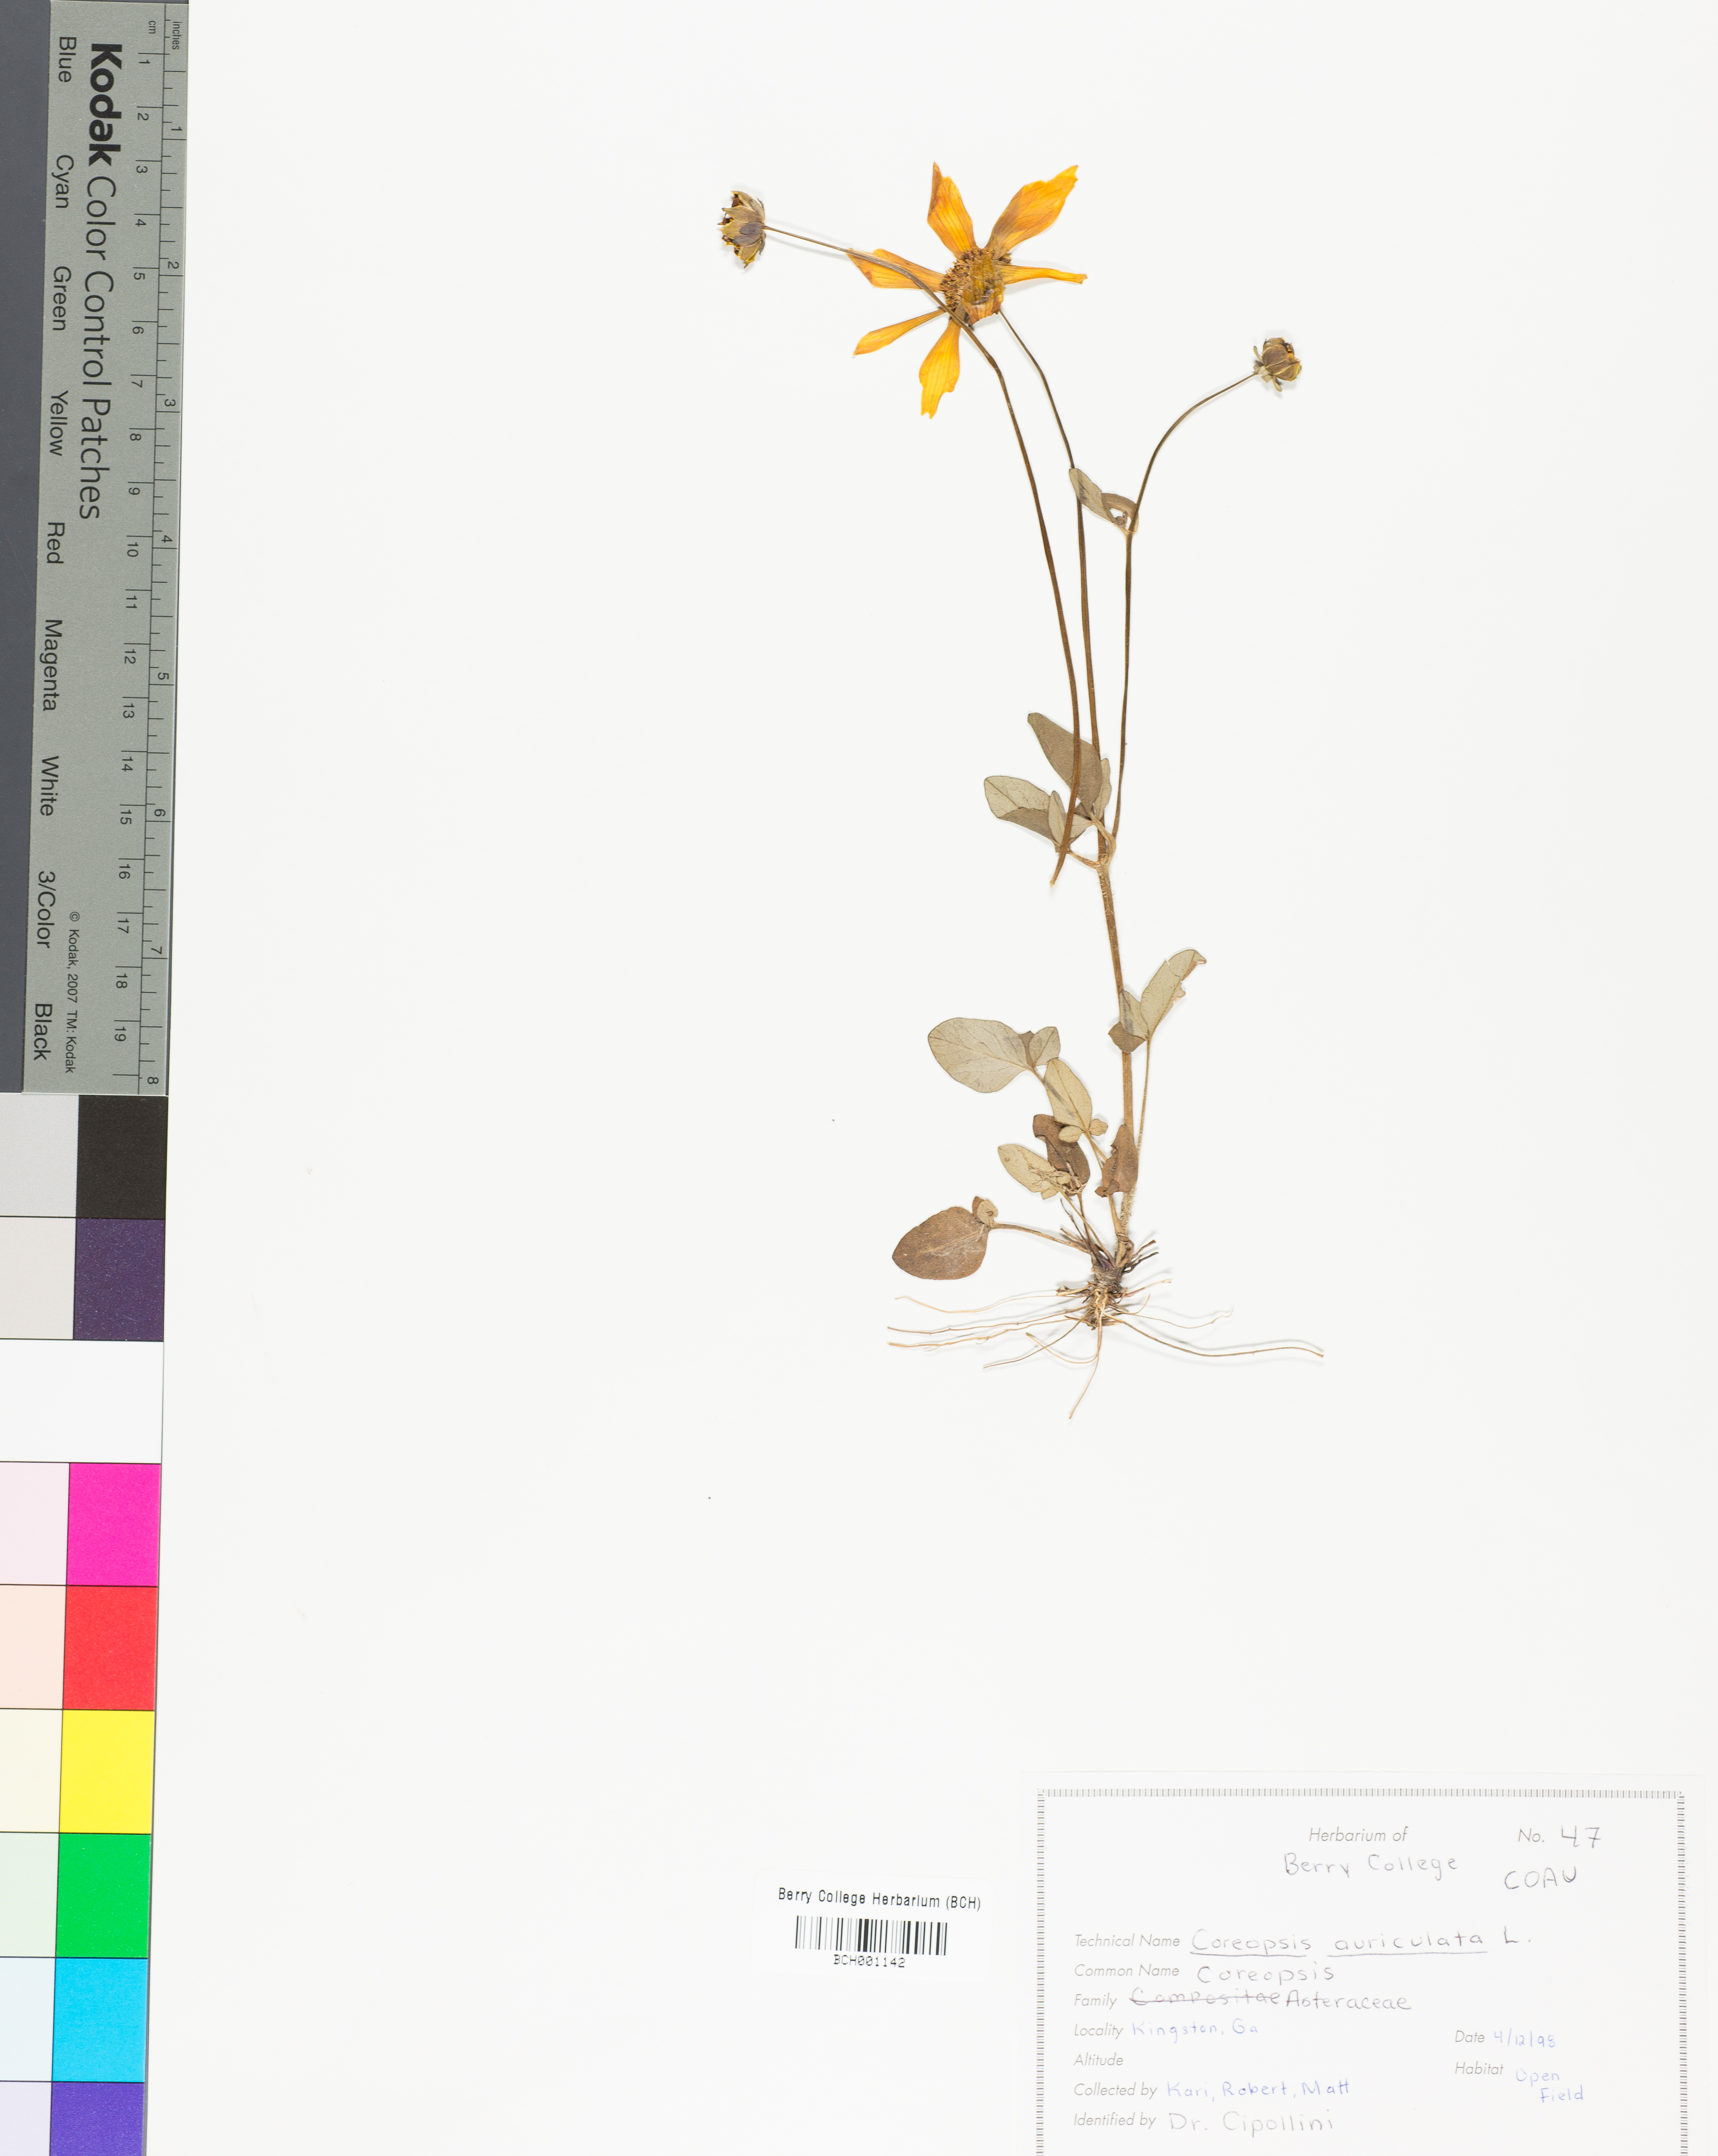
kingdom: Plantae
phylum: Tracheophyta
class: Magnoliopsida
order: Asterales
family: Asteraceae
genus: Coreopsis
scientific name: Coreopsis auriculata
